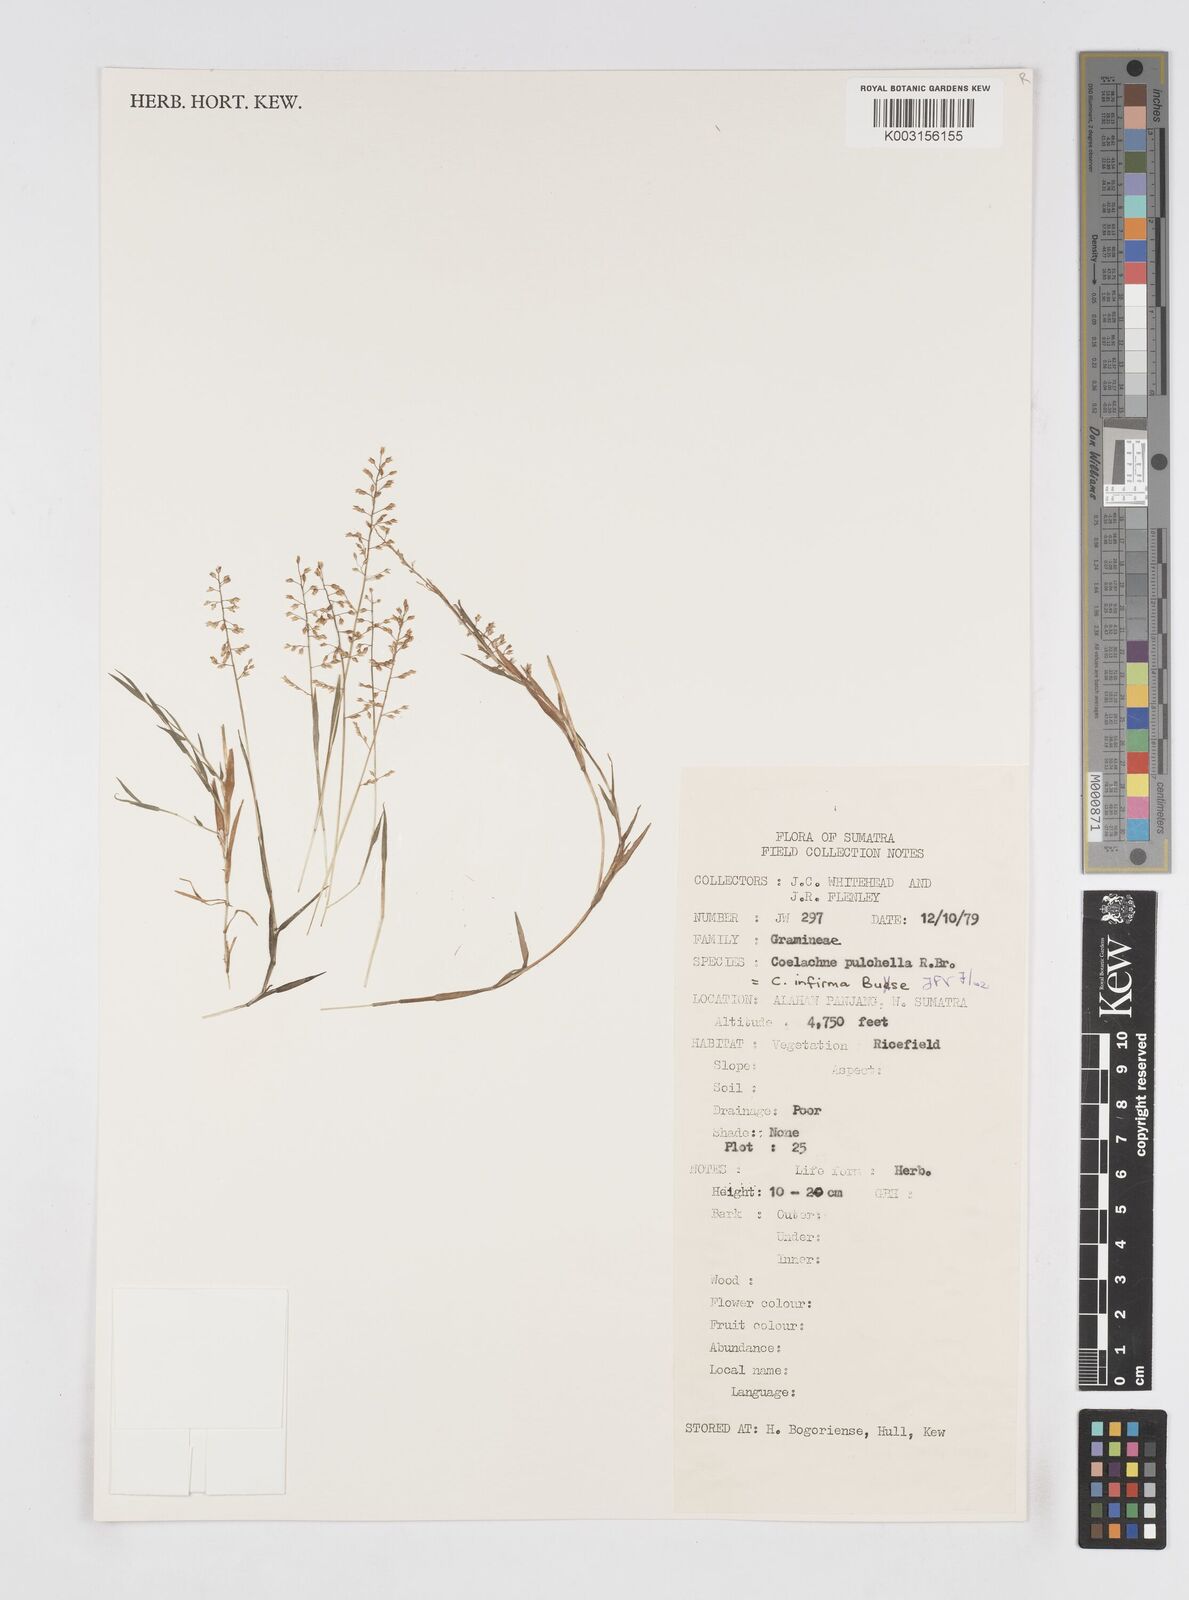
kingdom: Plantae
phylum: Tracheophyta
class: Liliopsida
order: Poales
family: Poaceae
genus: Coelachne
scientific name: Coelachne infirma
